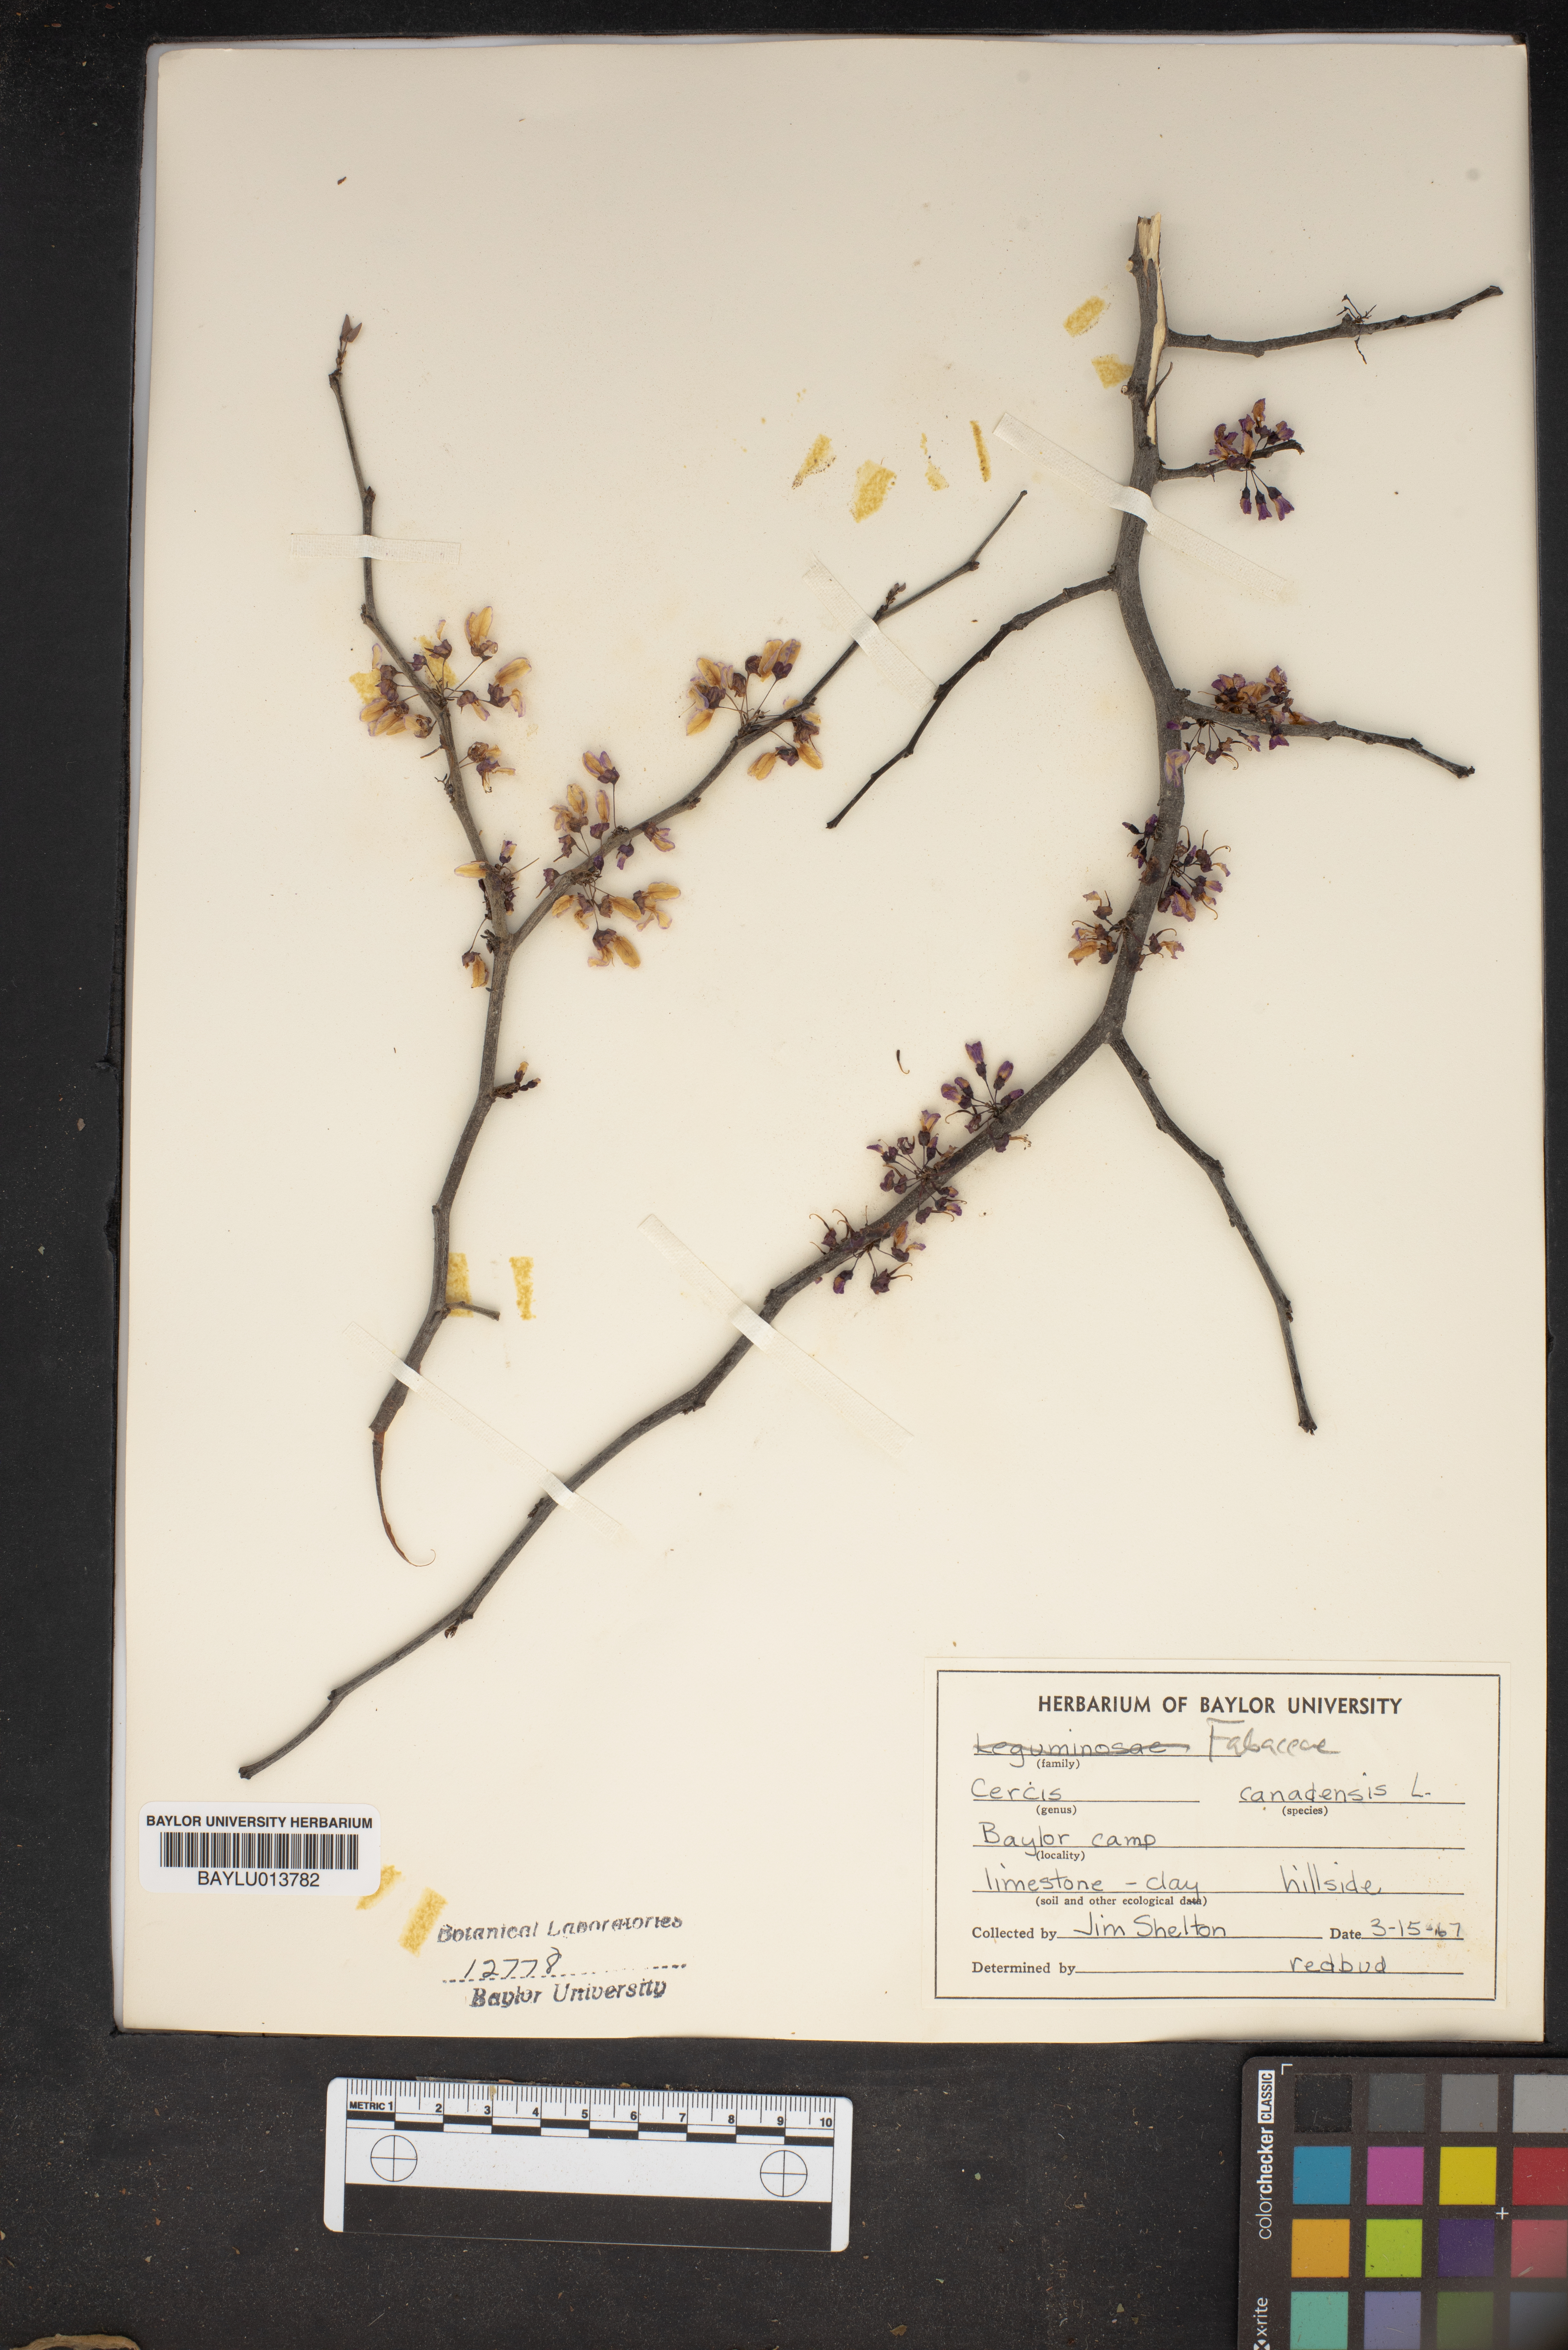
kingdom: Plantae
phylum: Tracheophyta
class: Magnoliopsida
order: Fabales
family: Fabaceae
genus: Cercis
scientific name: Cercis canadensis
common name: Eastern redbud
